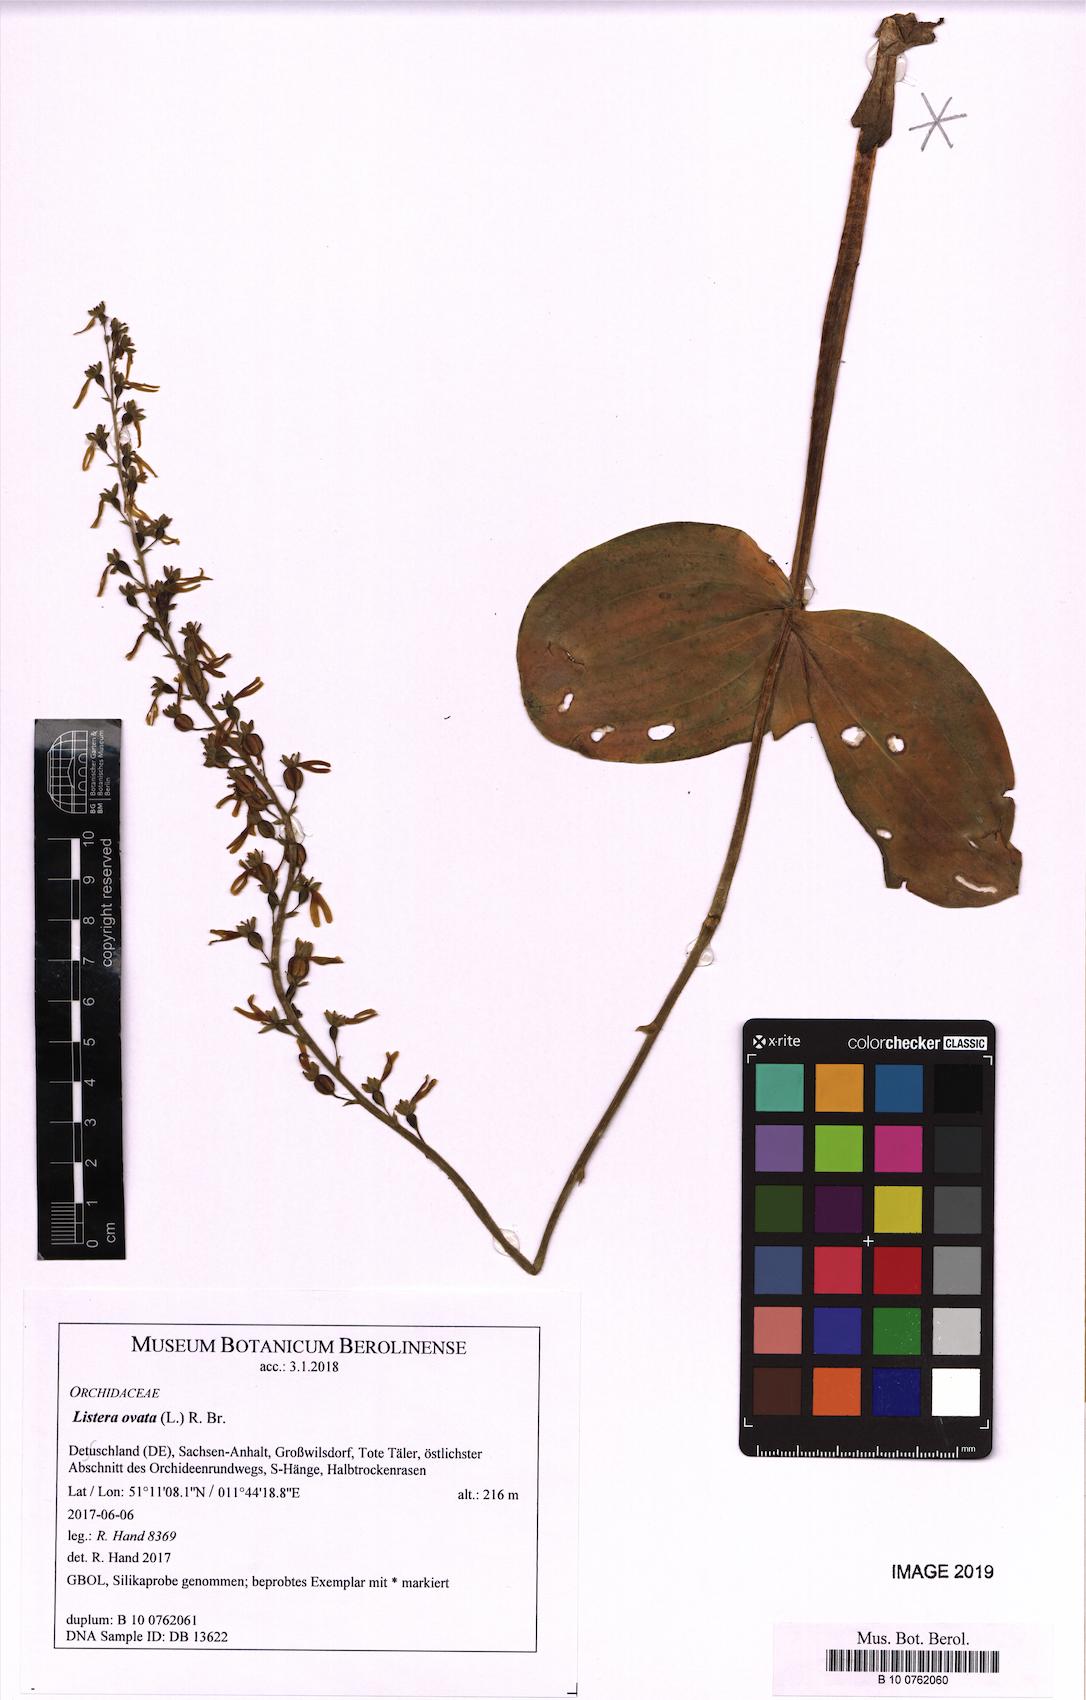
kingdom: Plantae
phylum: Tracheophyta
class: Liliopsida
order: Asparagales
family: Orchidaceae
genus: Neottia
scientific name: Neottia ovata
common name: Common twayblade
